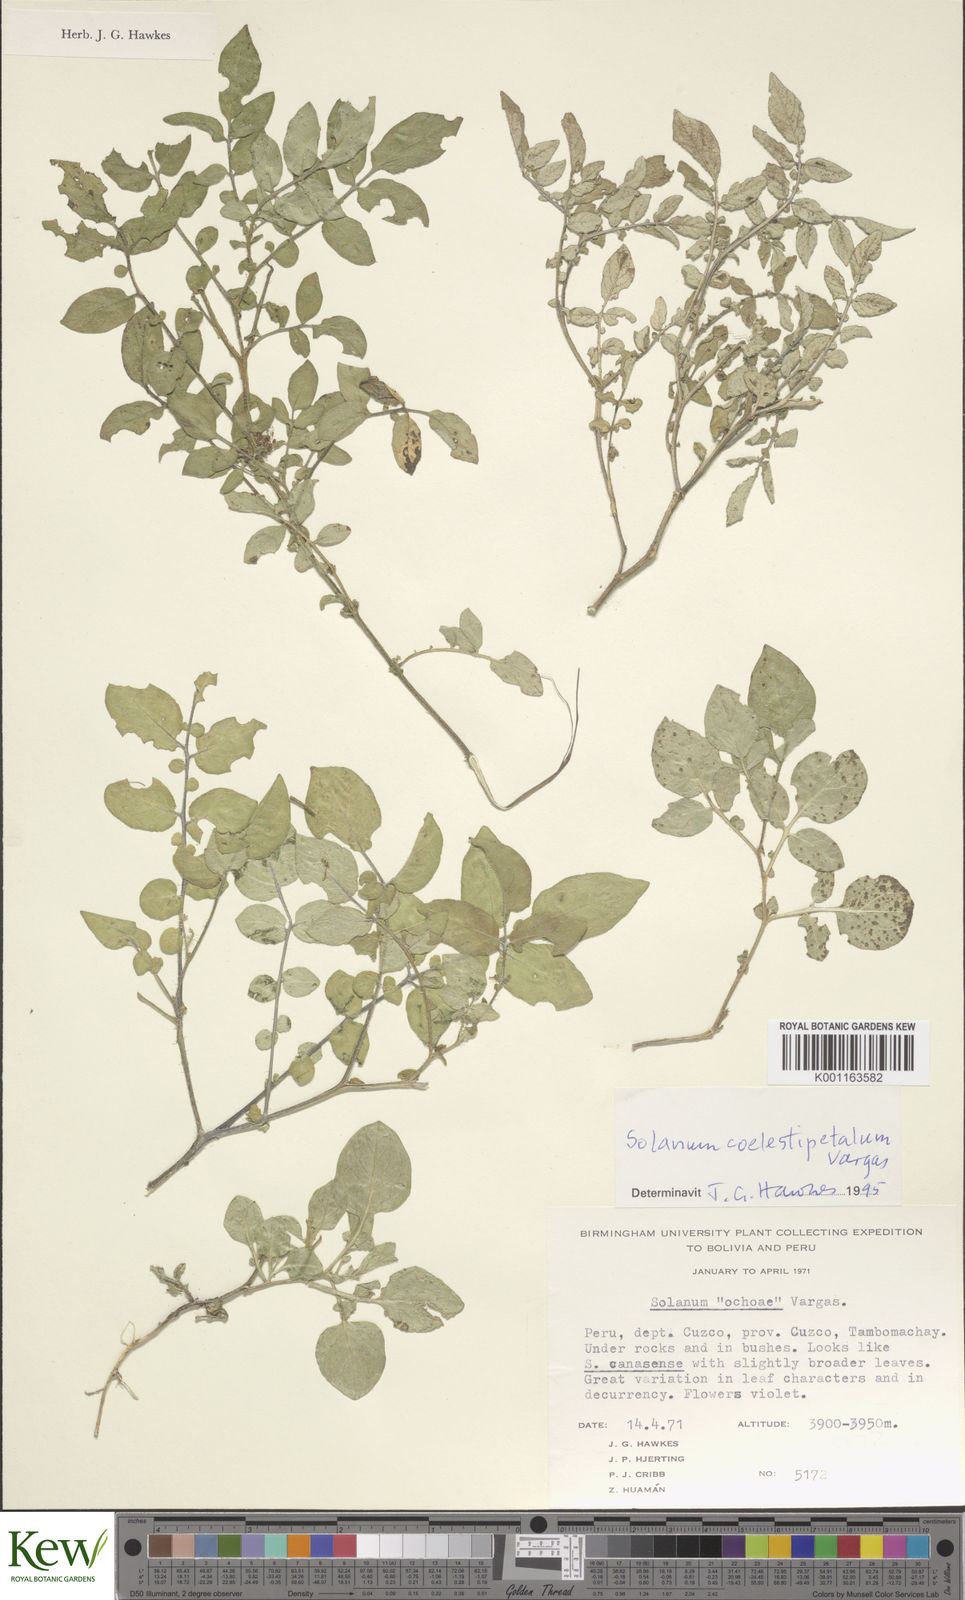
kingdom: Plantae
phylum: Tracheophyta
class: Magnoliopsida
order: Solanales
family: Solanaceae
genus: Solanum
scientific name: Solanum brevicaule
